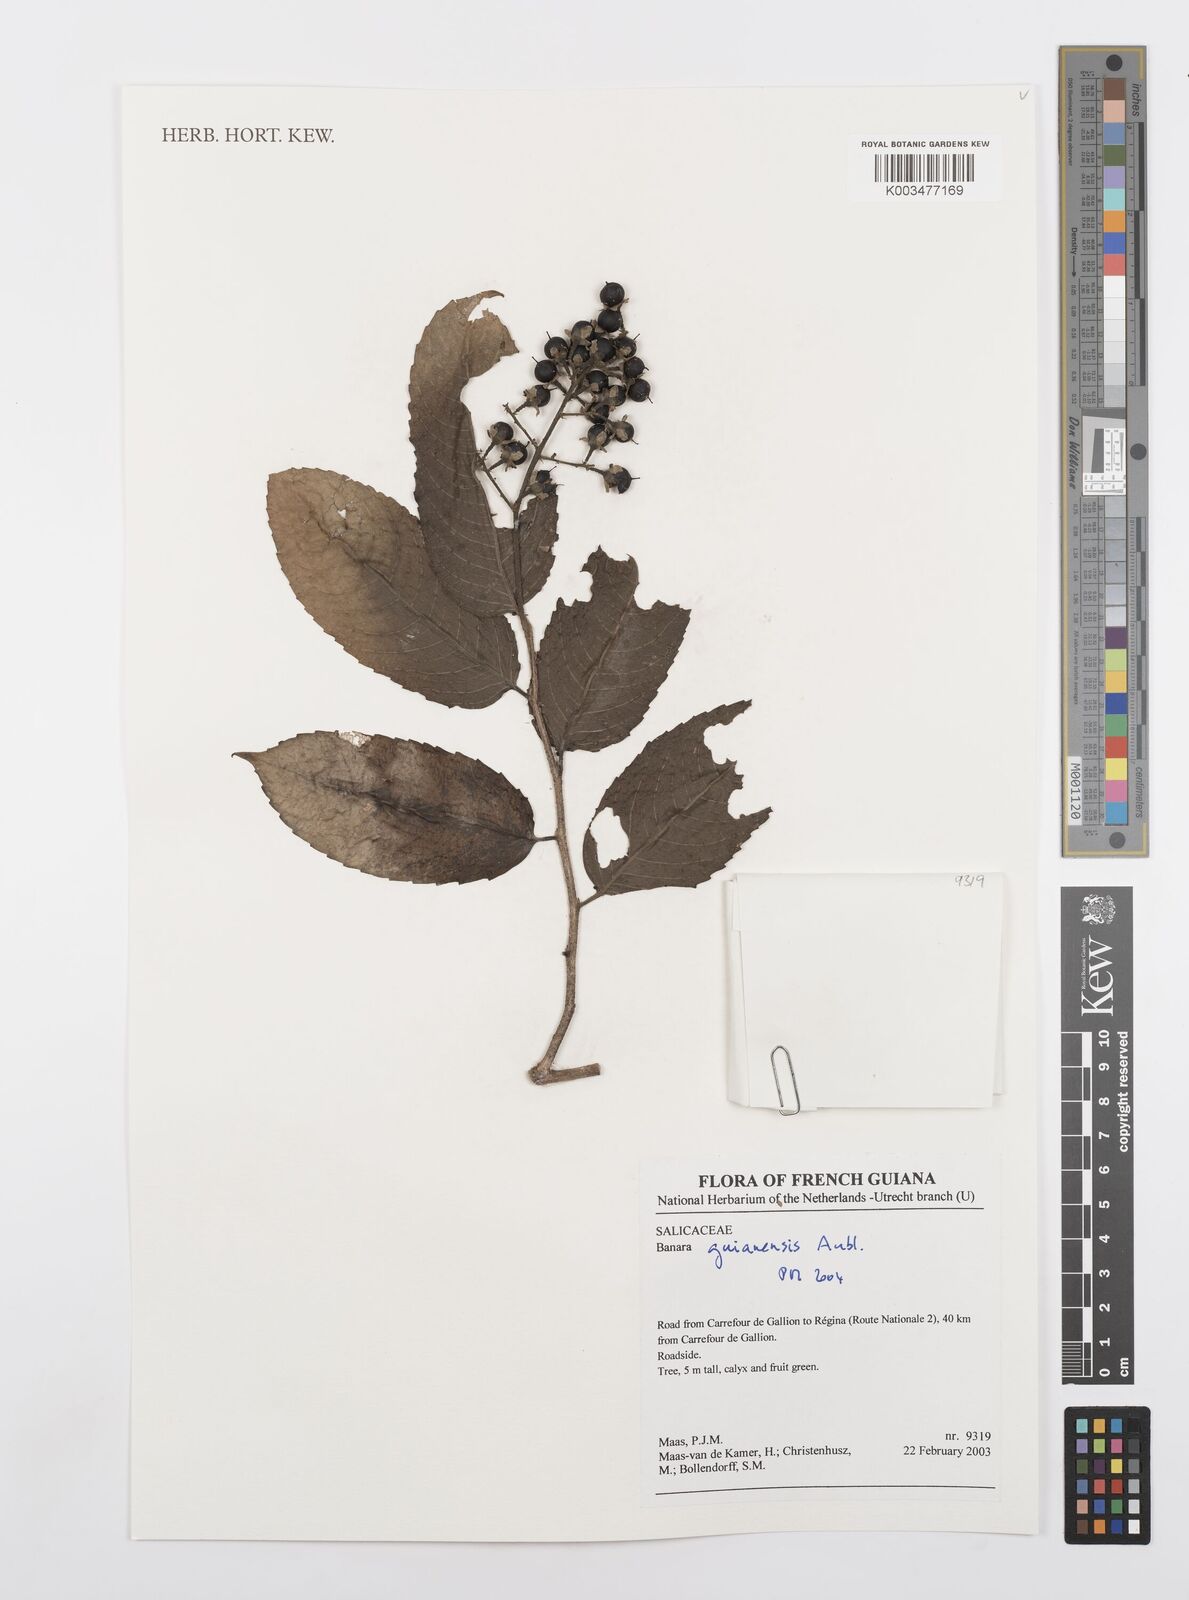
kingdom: Plantae
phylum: Tracheophyta
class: Magnoliopsida
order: Malpighiales
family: Salicaceae
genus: Banara
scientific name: Banara guianensis
